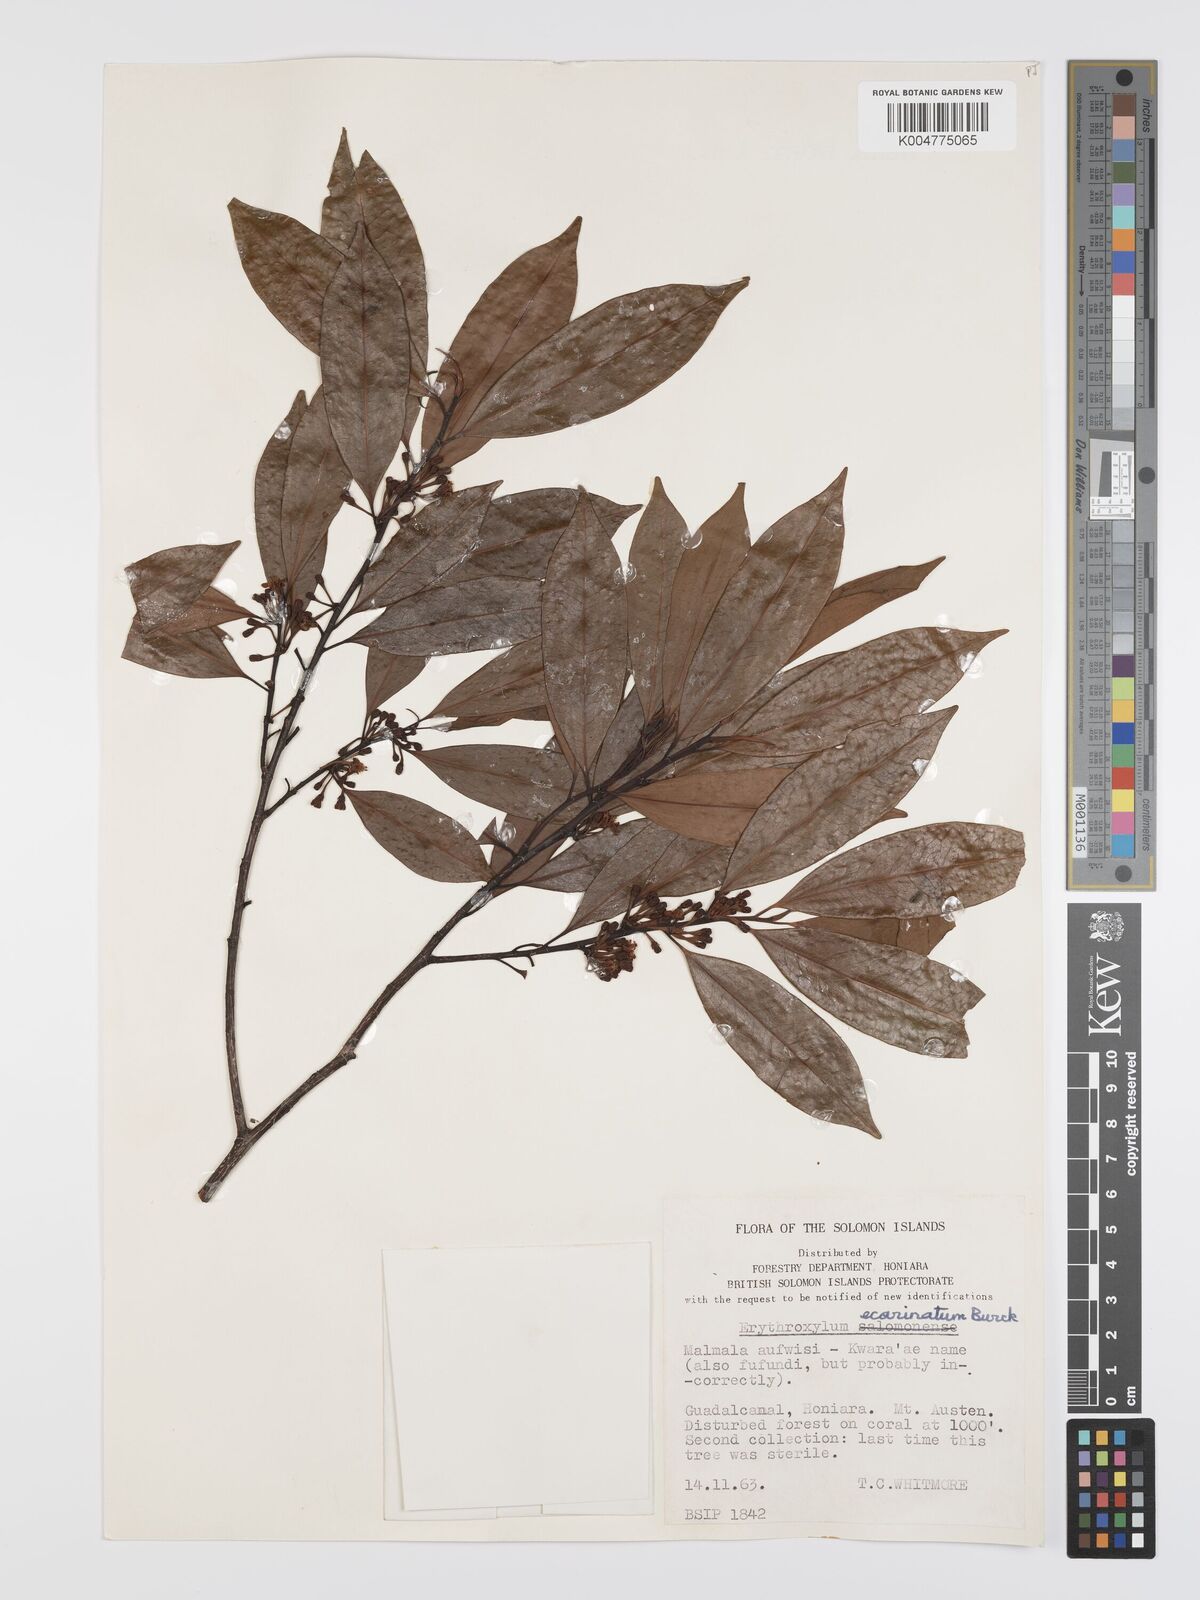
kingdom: Plantae
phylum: Tracheophyta
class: Magnoliopsida
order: Malpighiales
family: Erythroxylaceae
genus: Erythroxylum
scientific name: Erythroxylum ecarinatum
